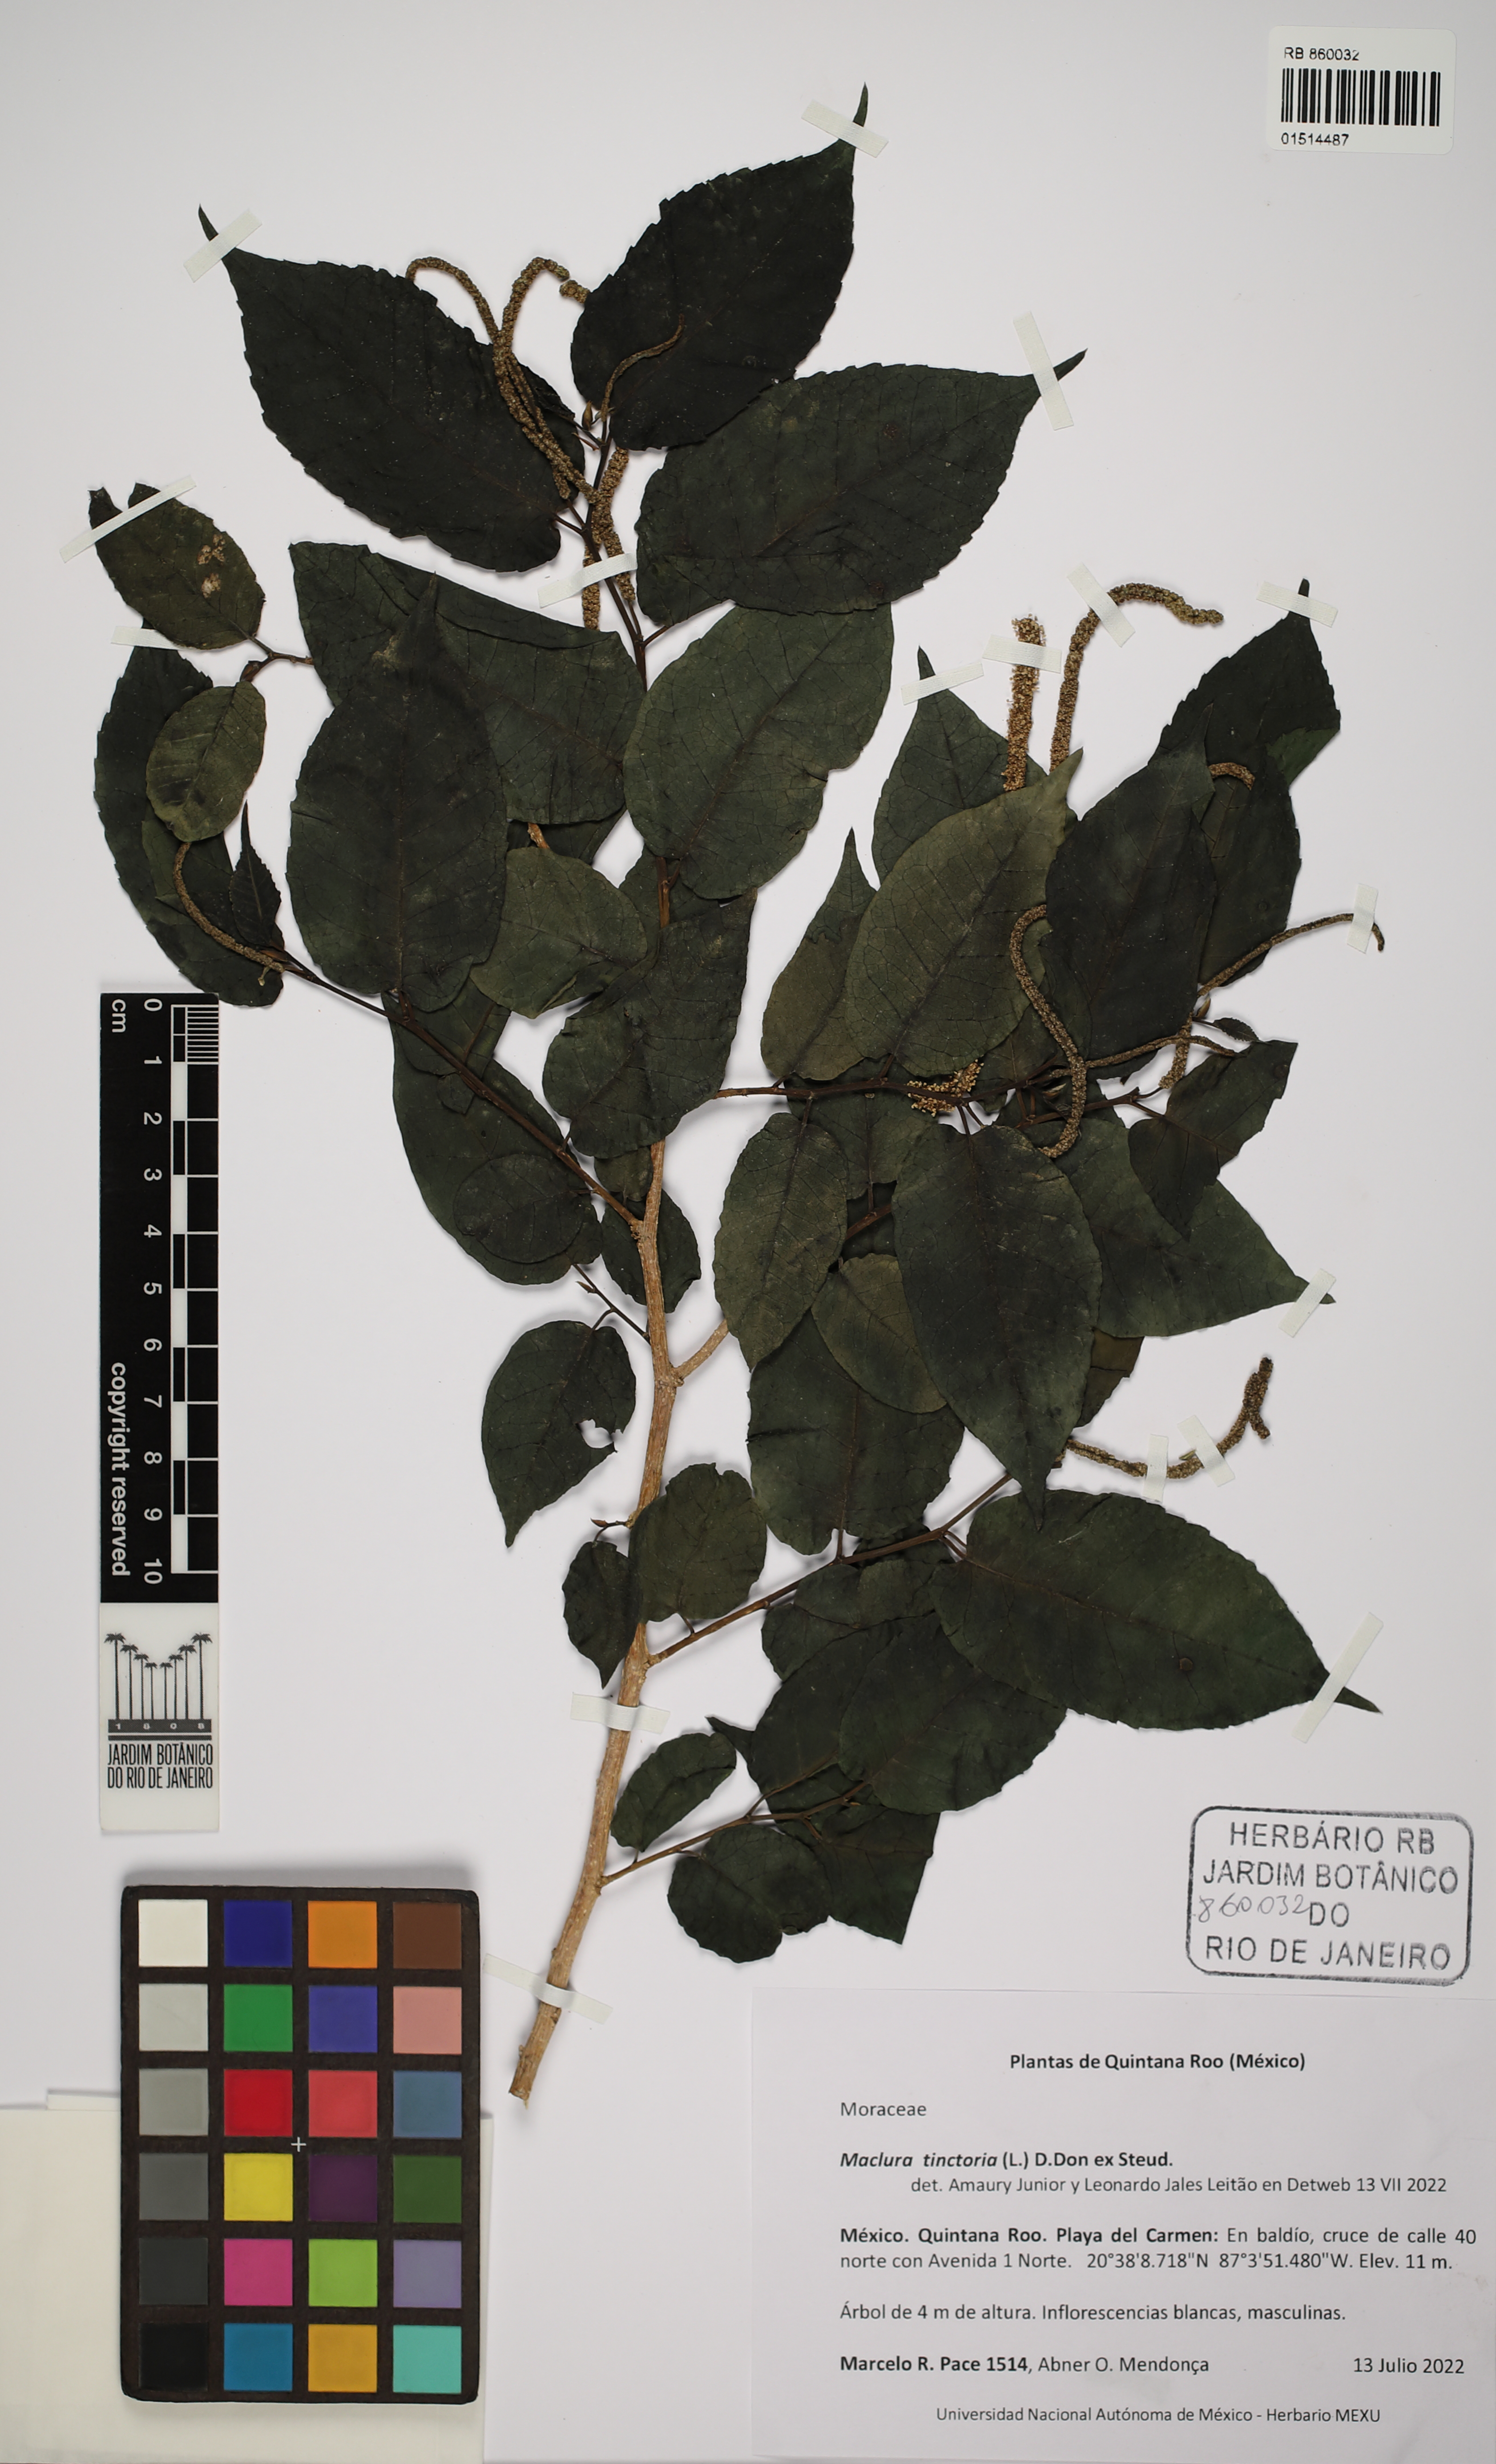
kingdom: Plantae
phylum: Tracheophyta
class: Magnoliopsida
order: Rosales
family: Moraceae
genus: Maclura
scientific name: Maclura tinctoria
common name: Old fustic
